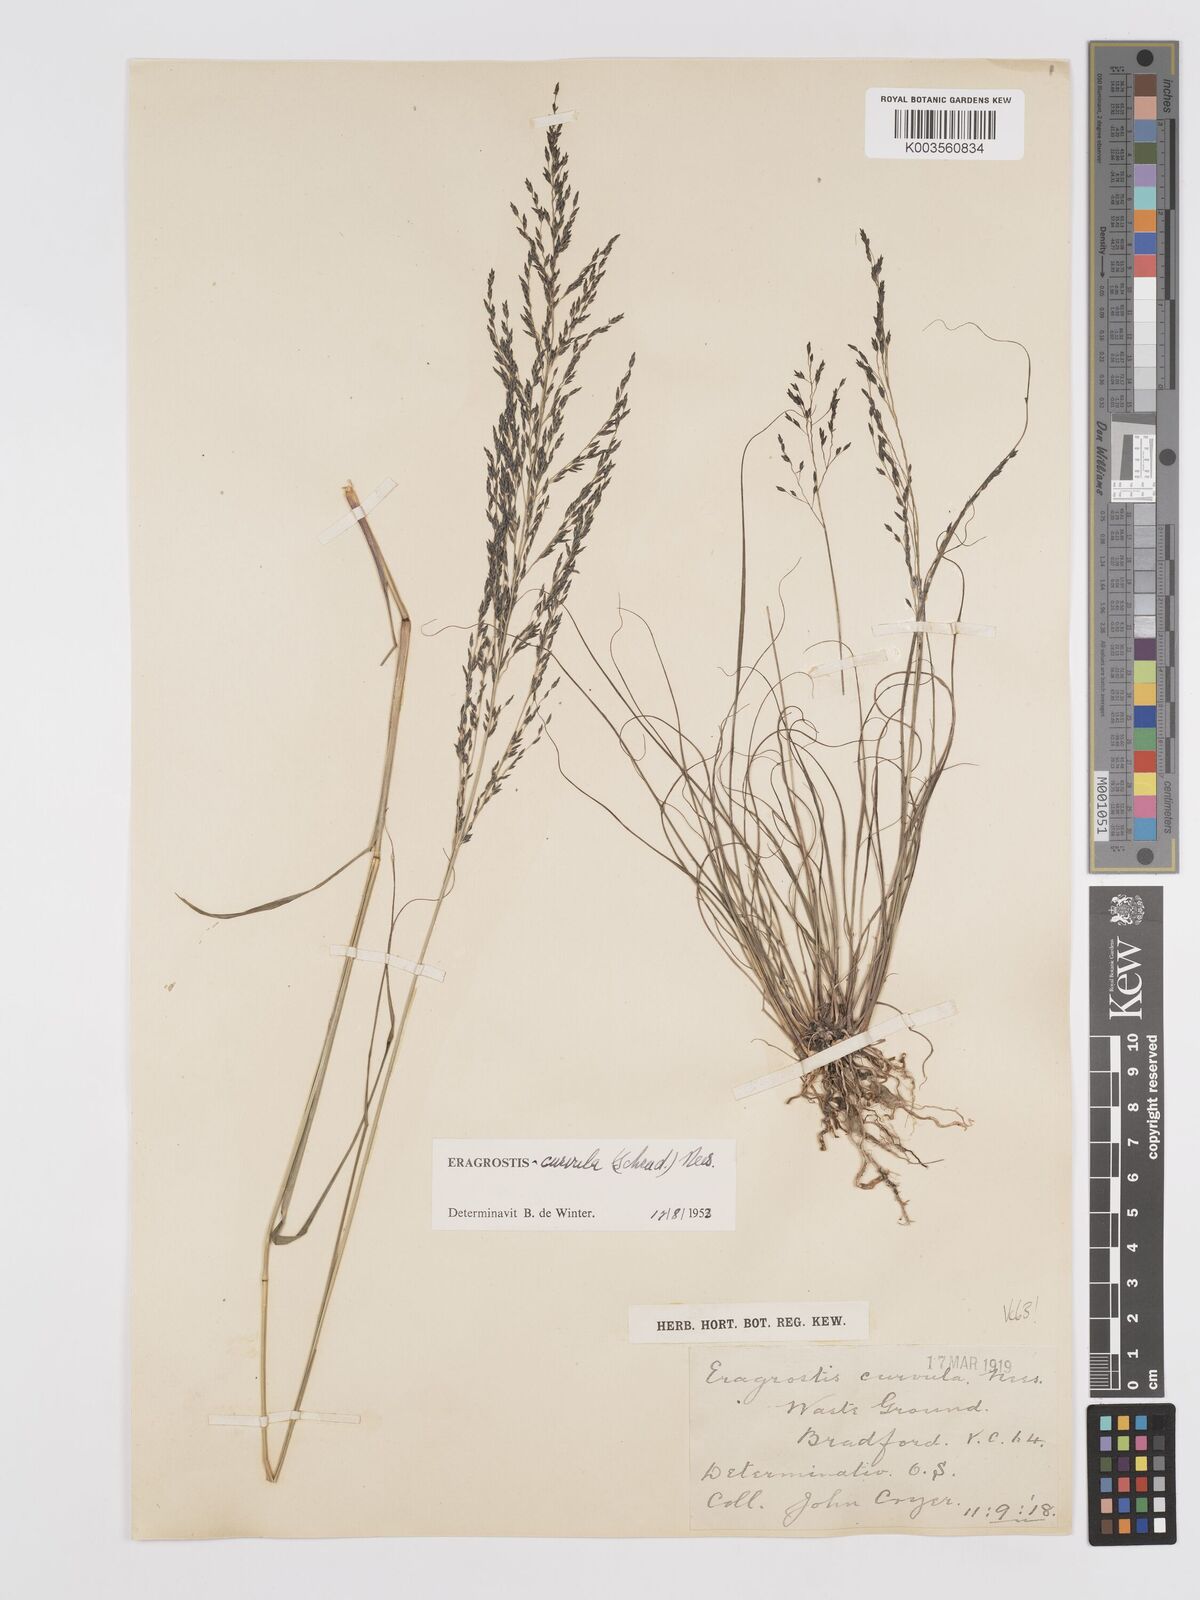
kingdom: Plantae
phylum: Tracheophyta
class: Liliopsida
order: Poales
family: Poaceae
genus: Eragrostis
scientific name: Eragrostis curvula
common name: African love-grass
